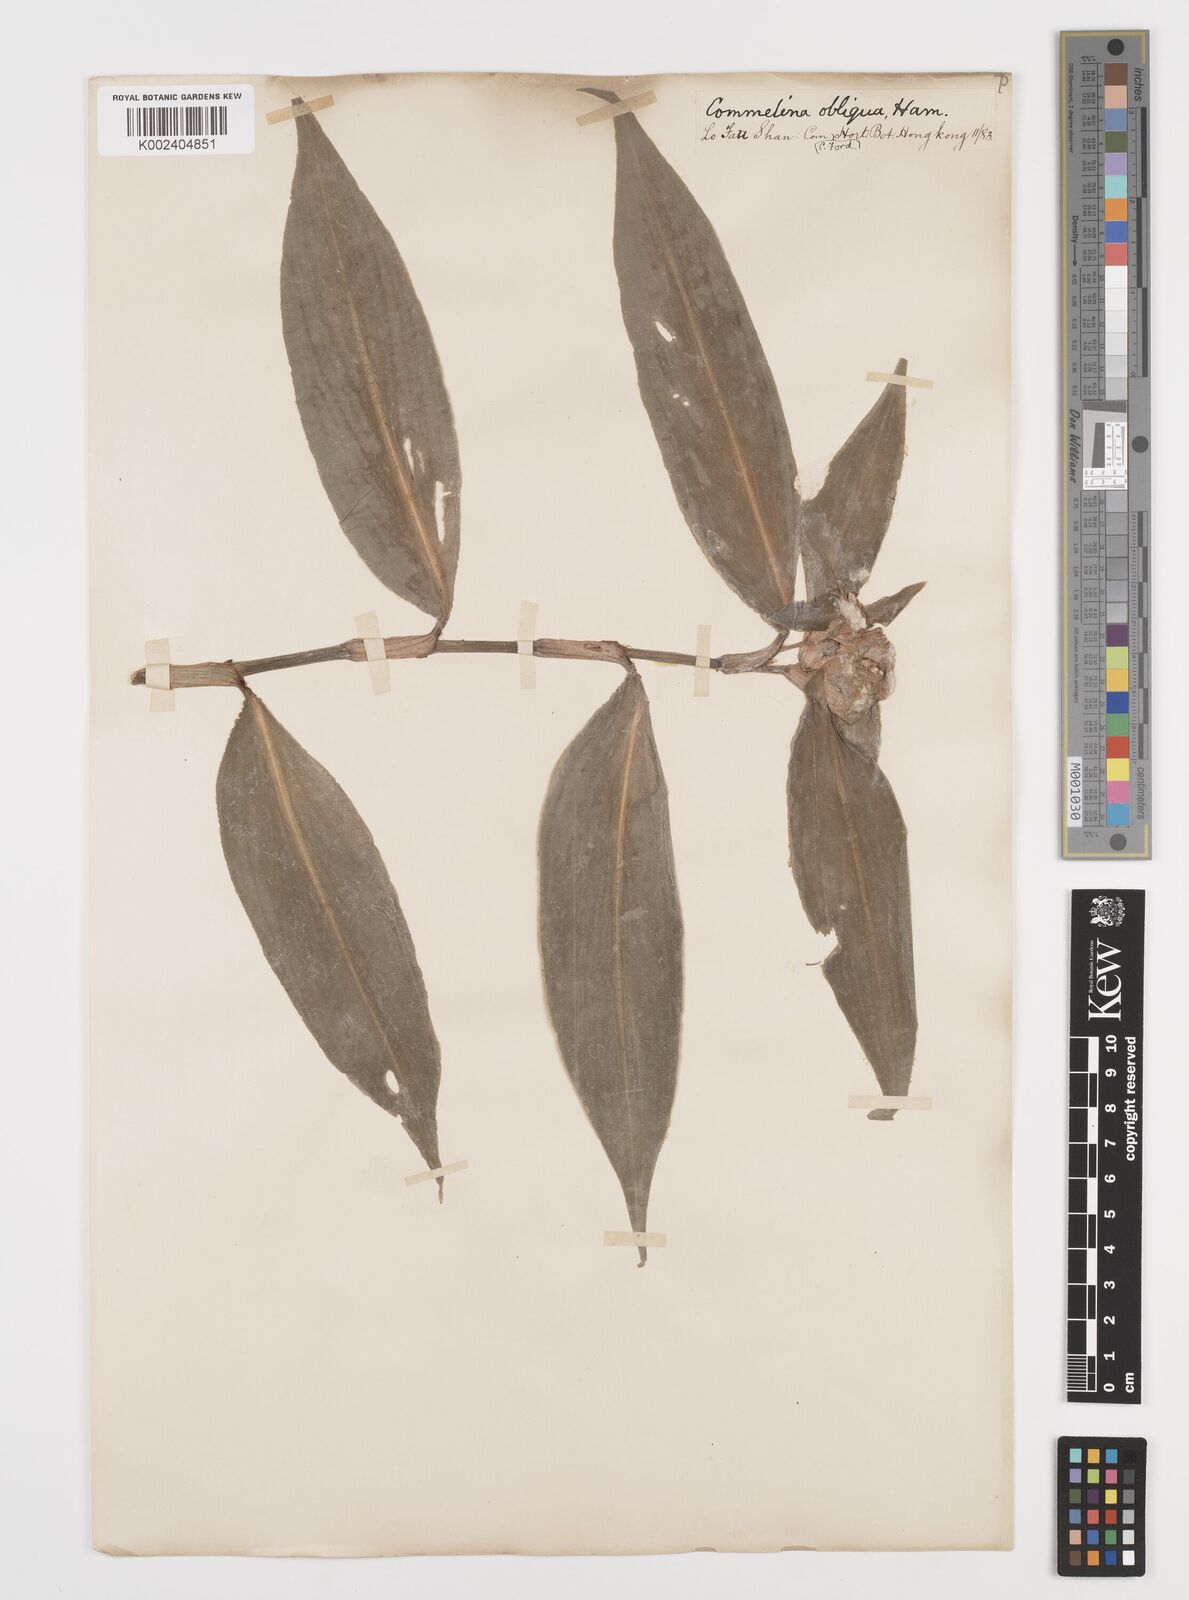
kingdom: Plantae
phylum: Tracheophyta
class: Liliopsida
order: Commelinales
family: Commelinaceae
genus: Commelina
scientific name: Commelina obliqua
